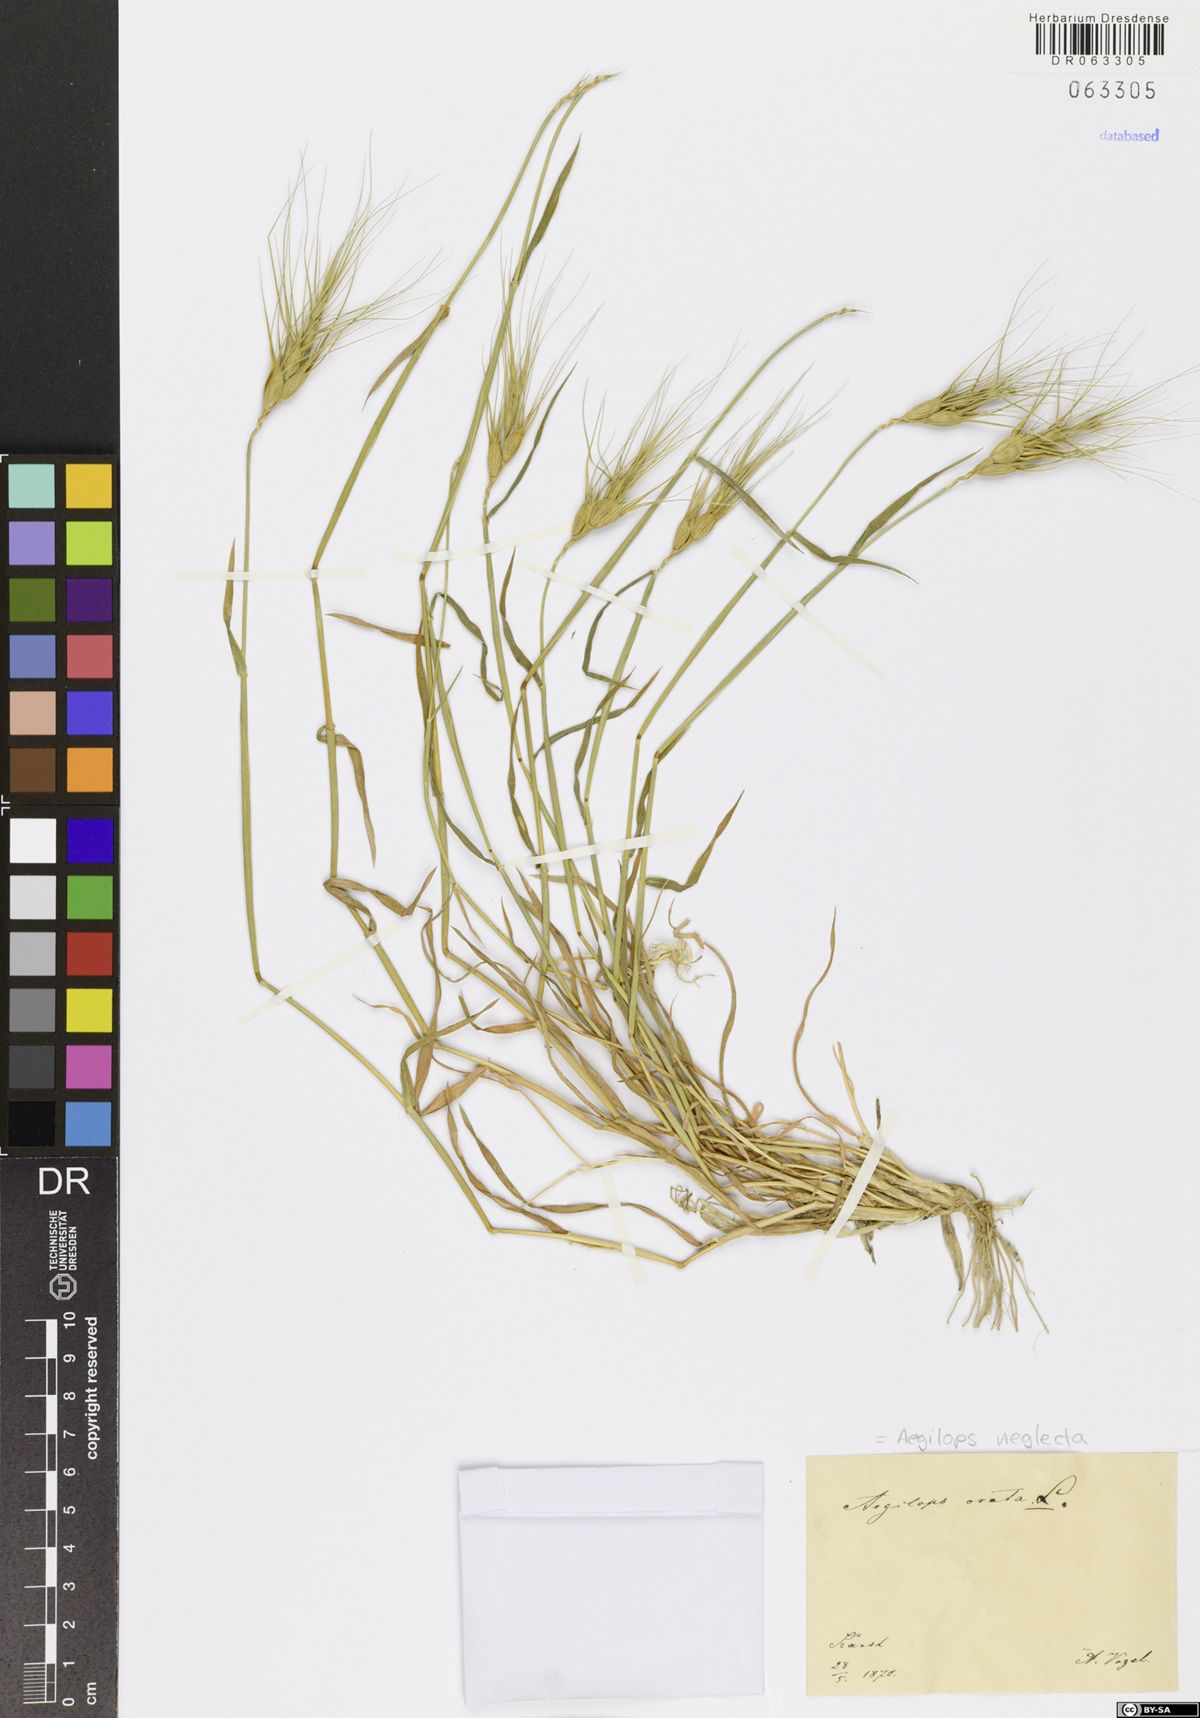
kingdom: Plantae
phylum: Tracheophyta
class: Liliopsida
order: Poales
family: Poaceae
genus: Aegilops
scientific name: Aegilops neglecta
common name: Three-awn goat grass
